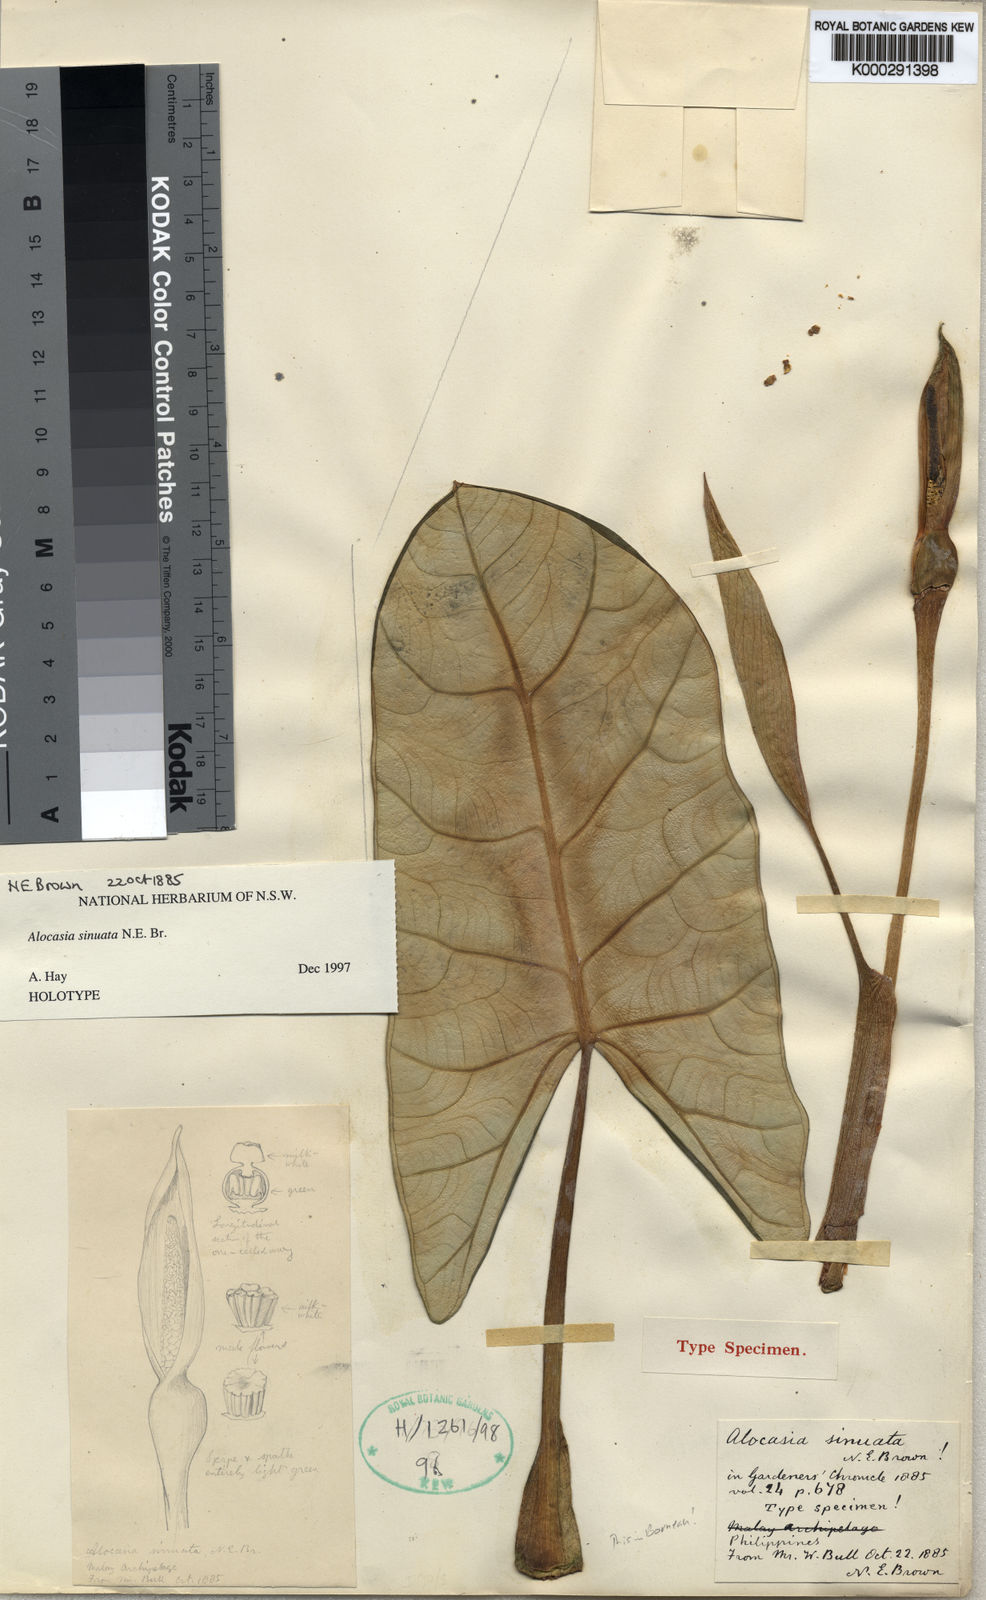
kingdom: Plantae
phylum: Tracheophyta
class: Liliopsida
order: Alismatales
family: Araceae
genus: Alocasia
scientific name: Alocasia sinuata
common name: Alocasia quilted dreams
